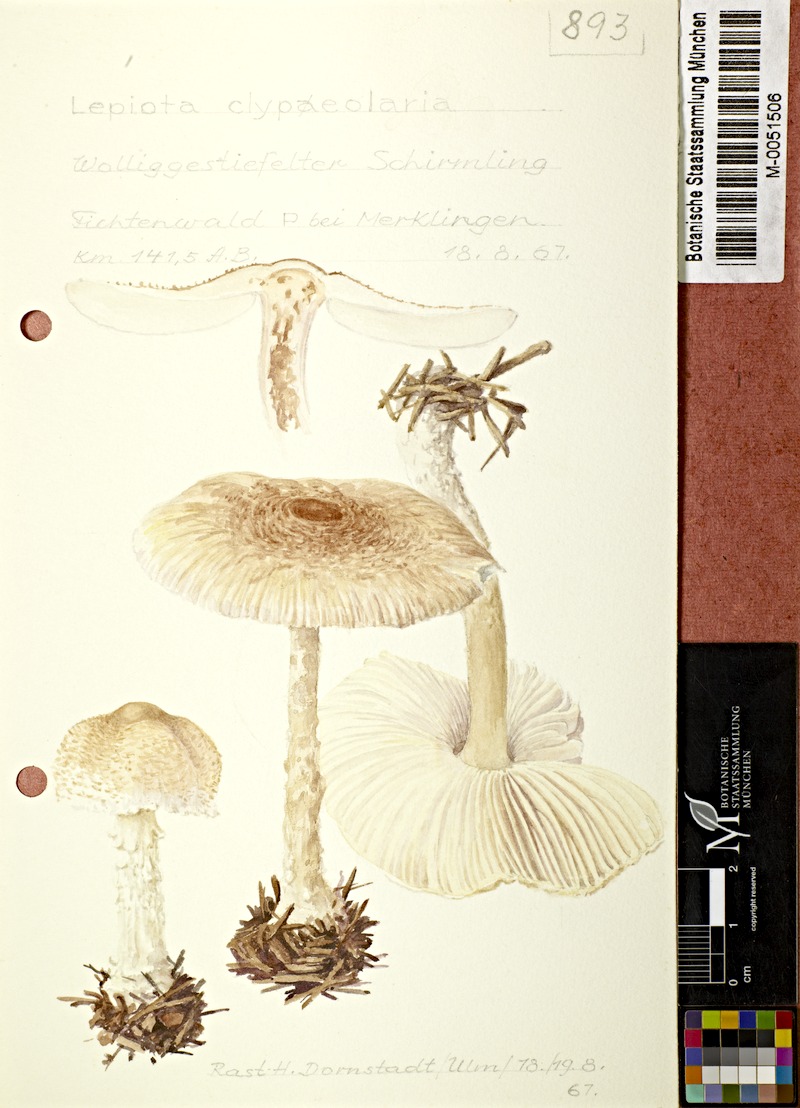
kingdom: Fungi
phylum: Basidiomycota
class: Agaricomycetes
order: Agaricales
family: Agaricaceae
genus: Lepiota
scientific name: Lepiota clypeolaria
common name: Shield dapperling
